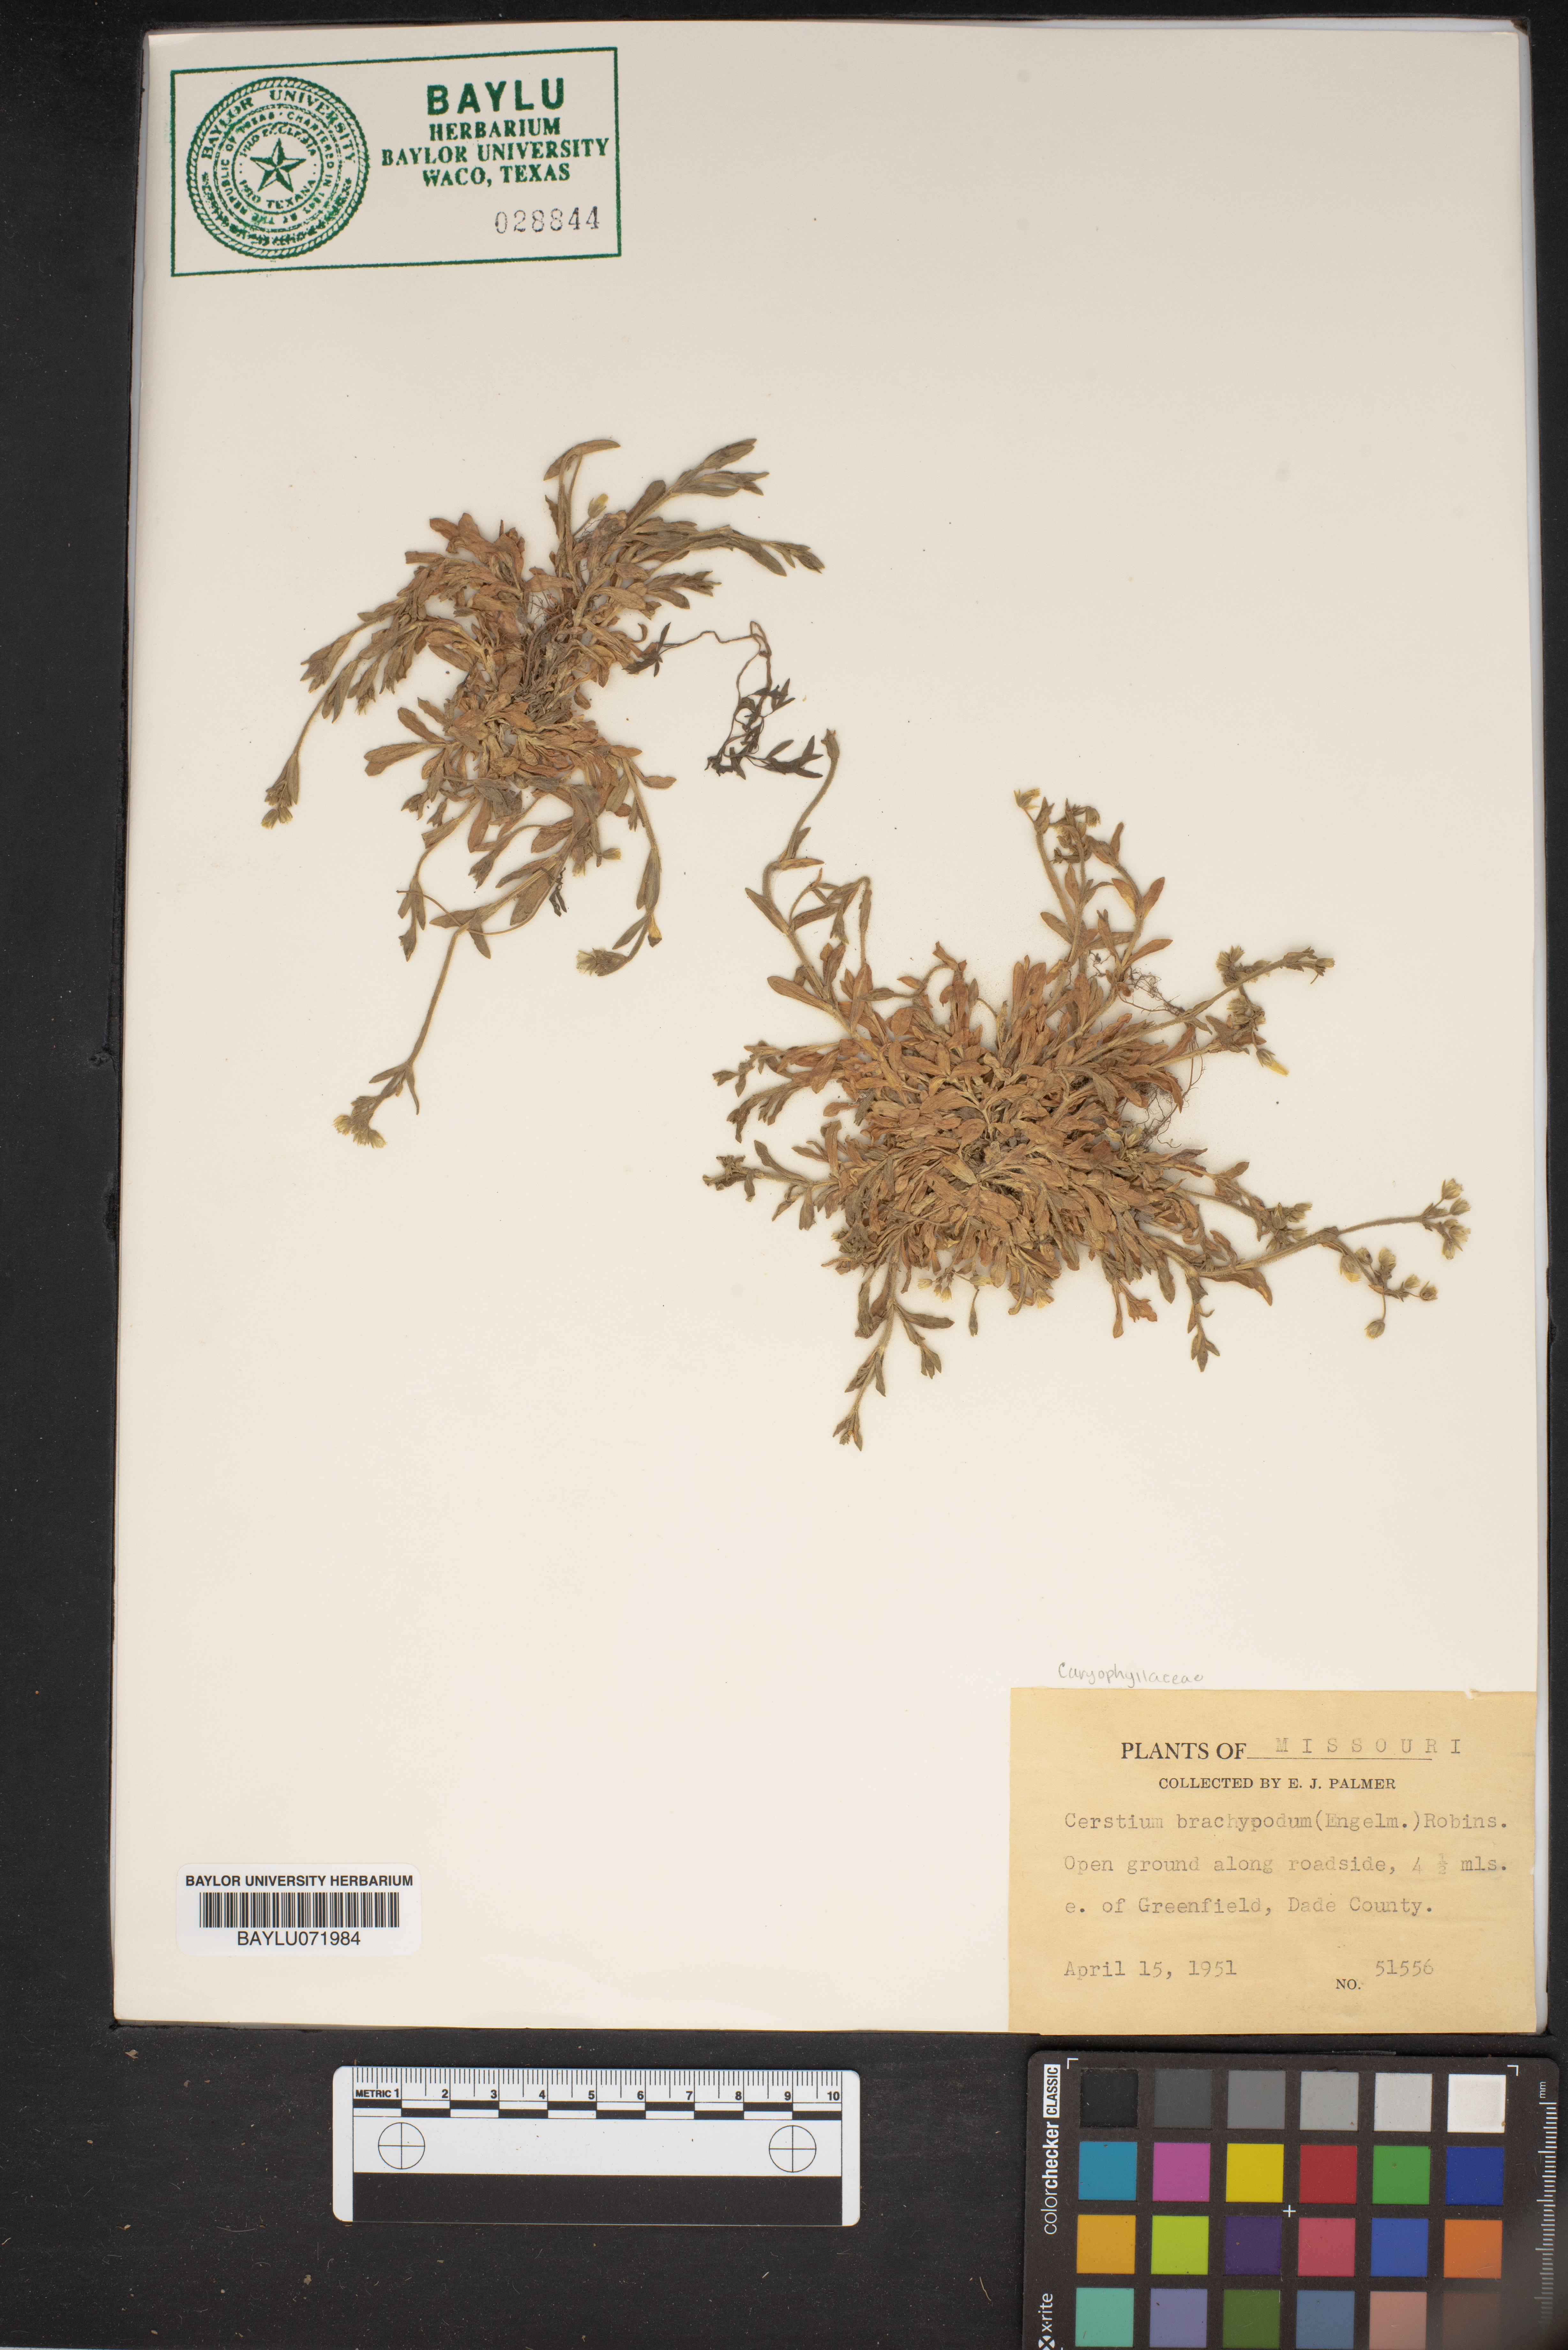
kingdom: Plantae
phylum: Tracheophyta
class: Magnoliopsida
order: Caryophyllales
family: Caryophyllaceae
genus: Cerastium
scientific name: Cerastium brachypodum
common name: Short-pedicelled nodding chickweed
